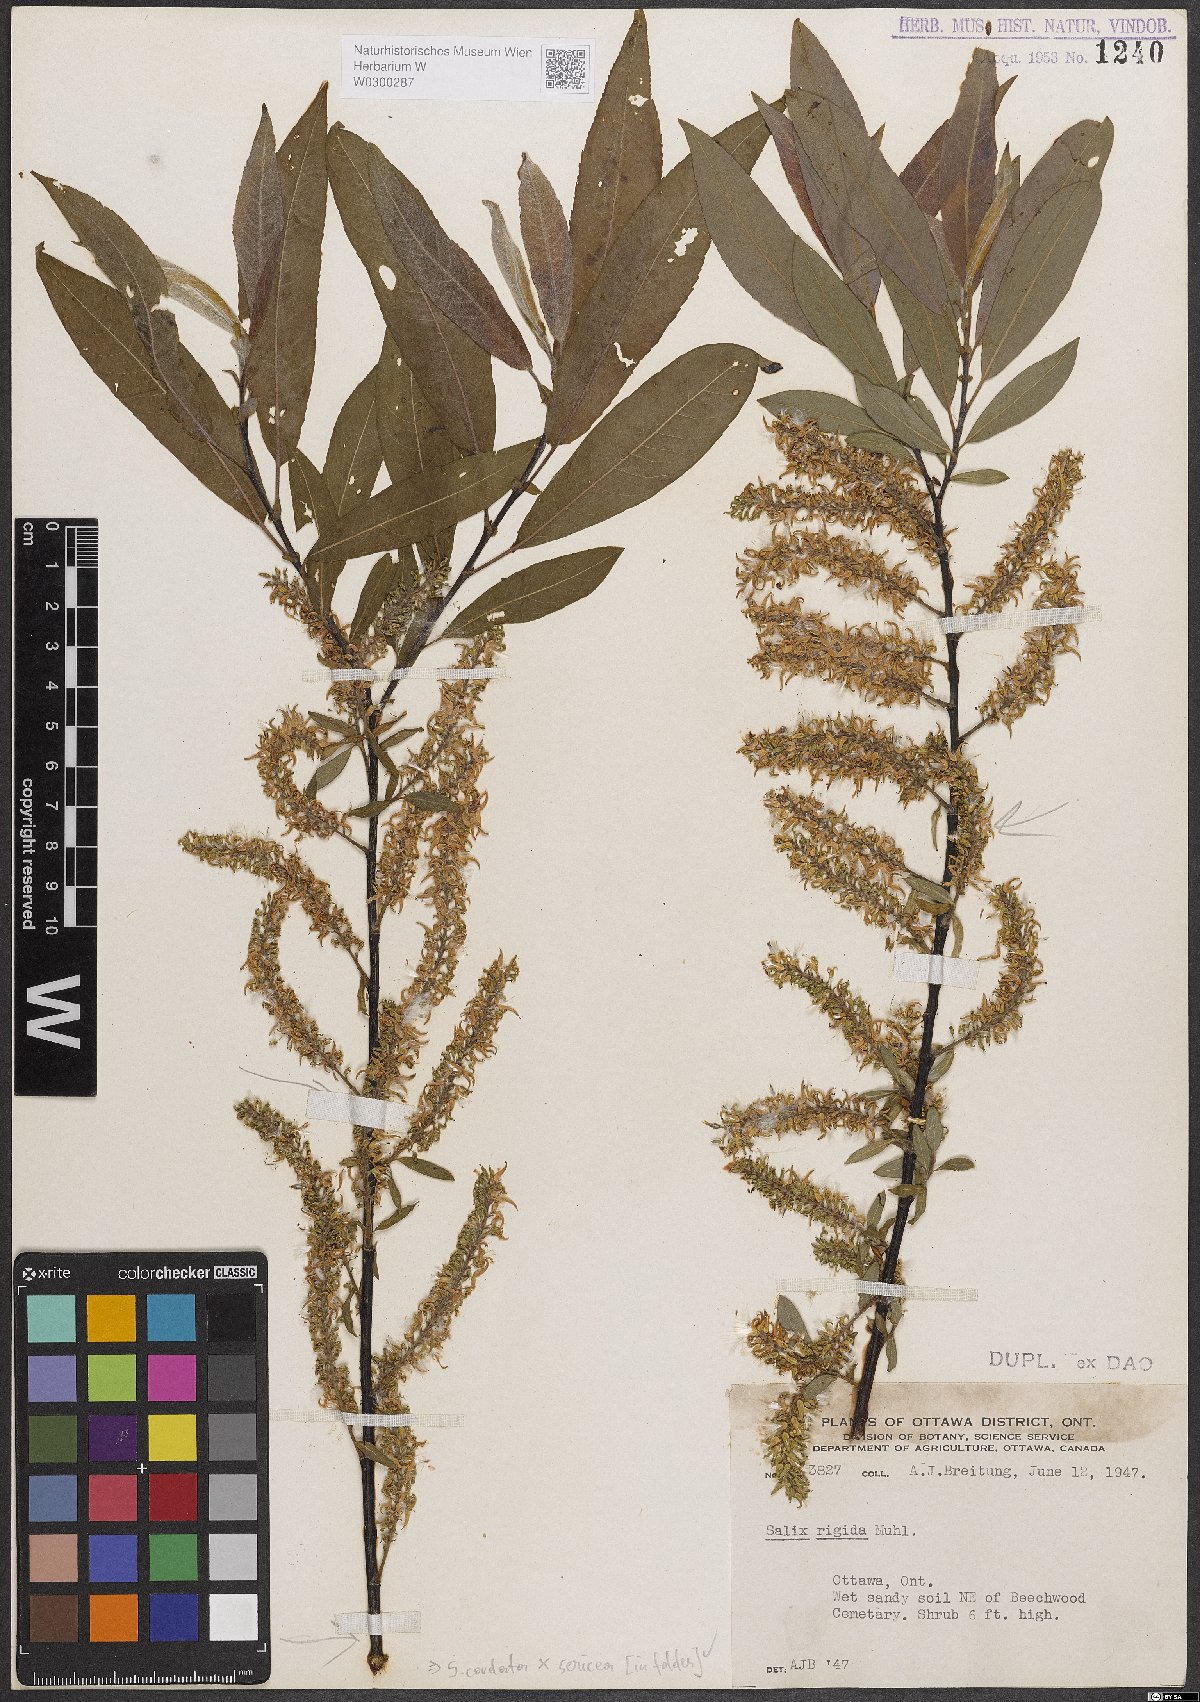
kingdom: Plantae
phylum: Tracheophyta
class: Magnoliopsida
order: Malpighiales
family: Salicaceae
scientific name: Salicaceae
